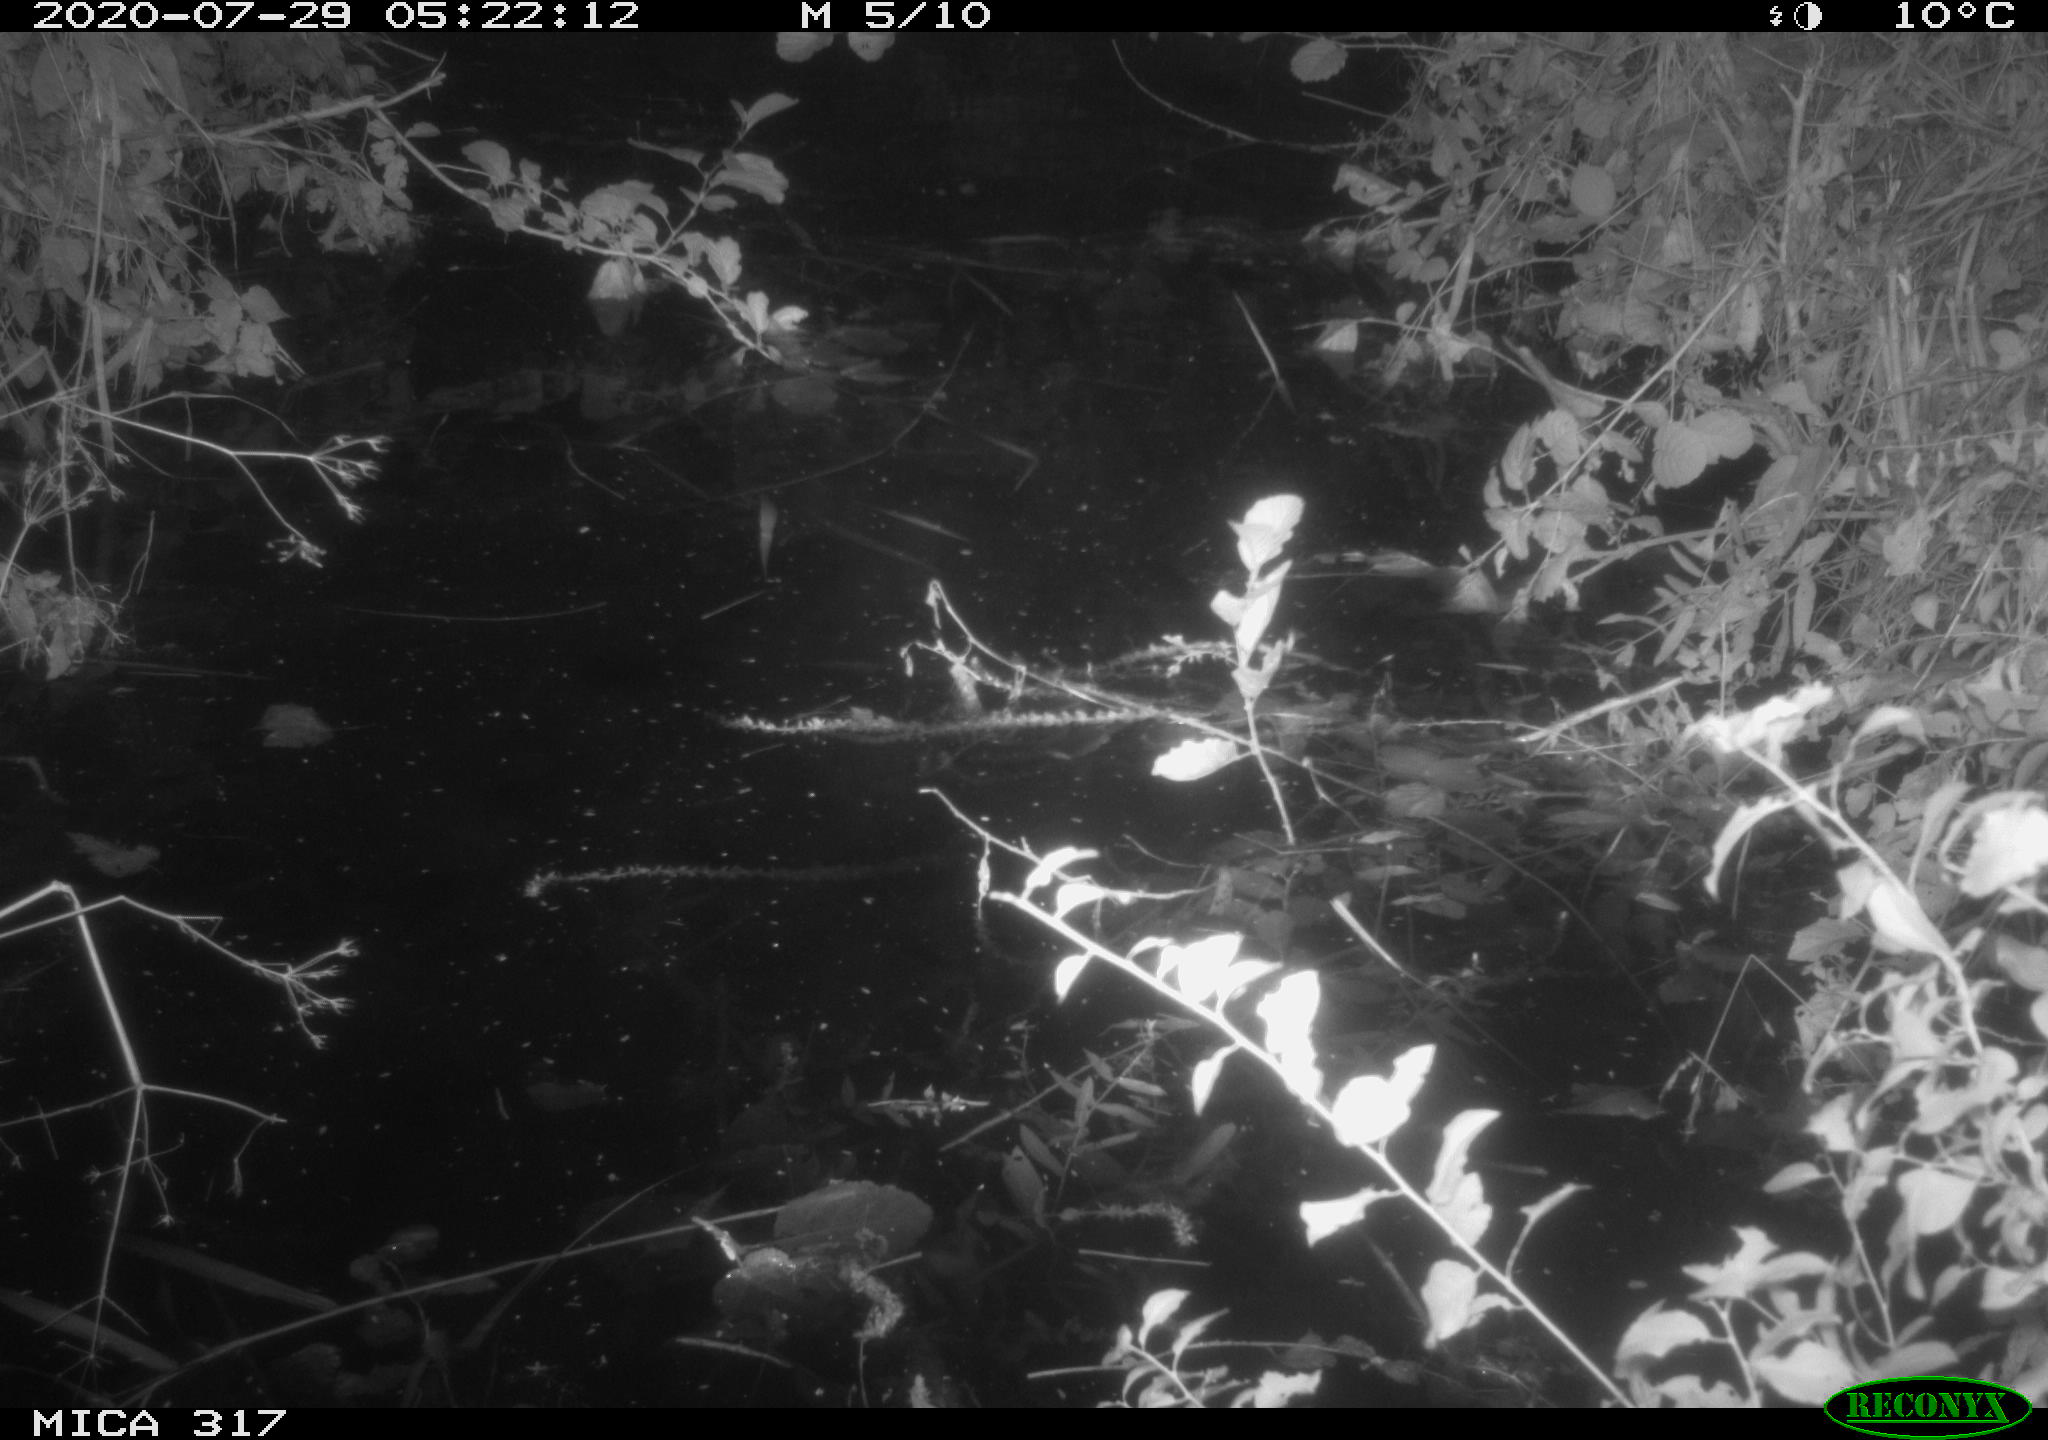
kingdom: Animalia
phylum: Chordata
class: Aves
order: Anseriformes
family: Anatidae
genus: Anas
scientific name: Anas platyrhynchos
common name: Mallard
